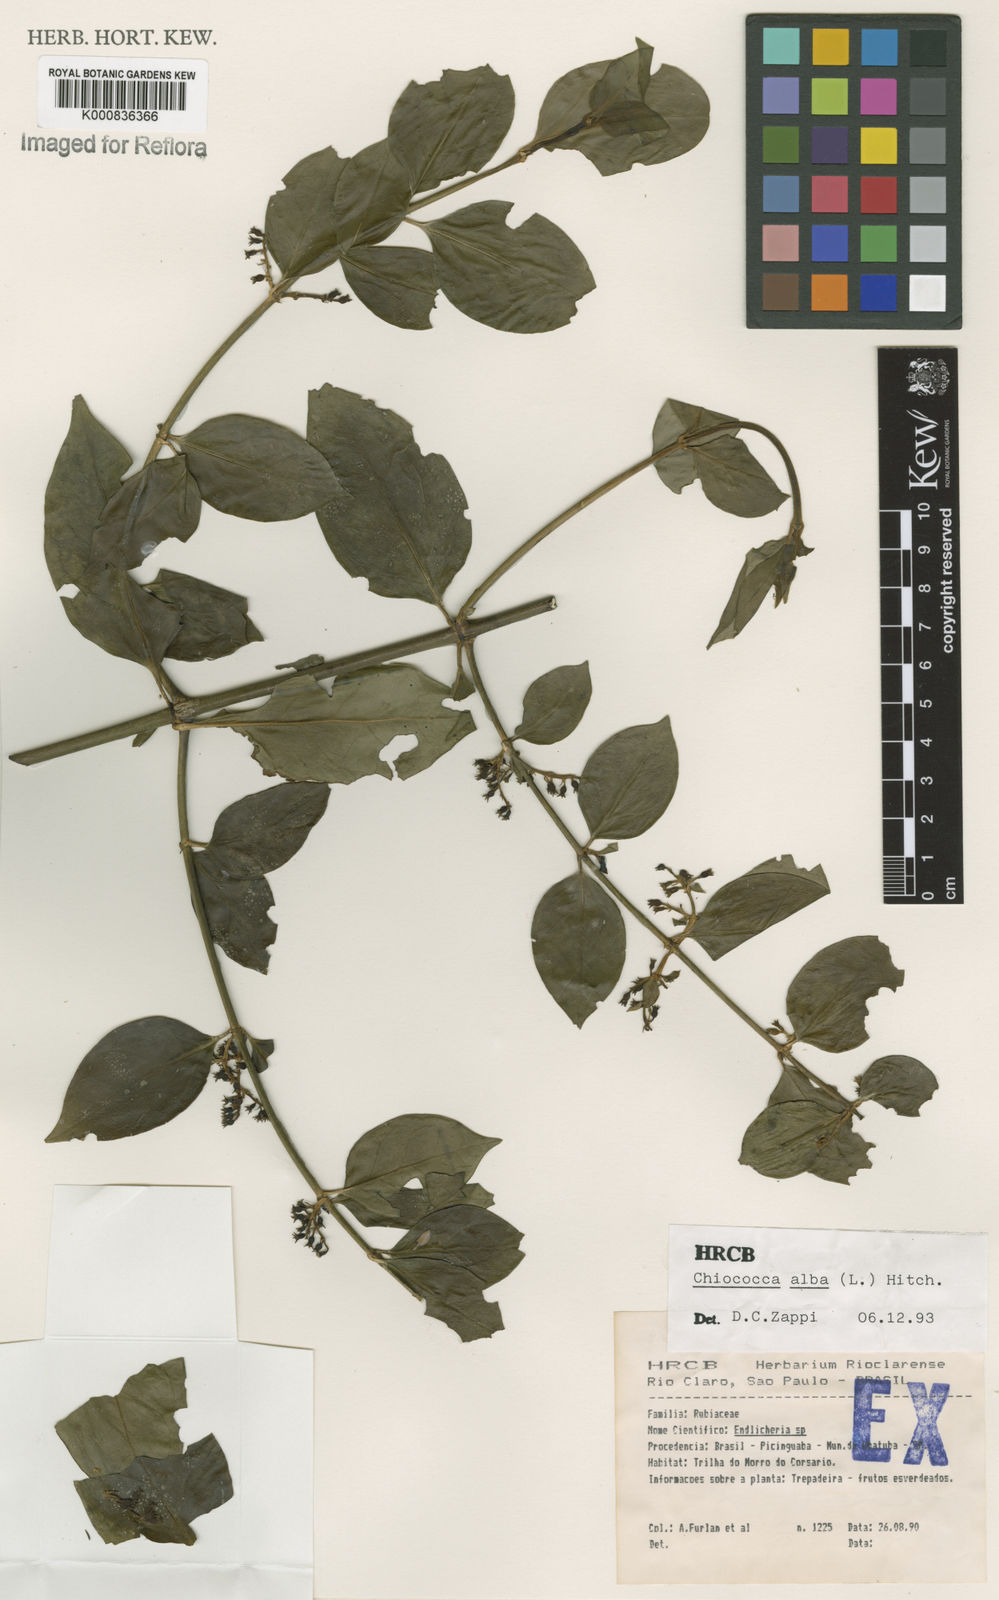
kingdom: Plantae
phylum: Tracheophyta
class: Magnoliopsida
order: Gentianales
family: Rubiaceae
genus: Chiococca
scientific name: Chiococca alba
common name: Snowberry
